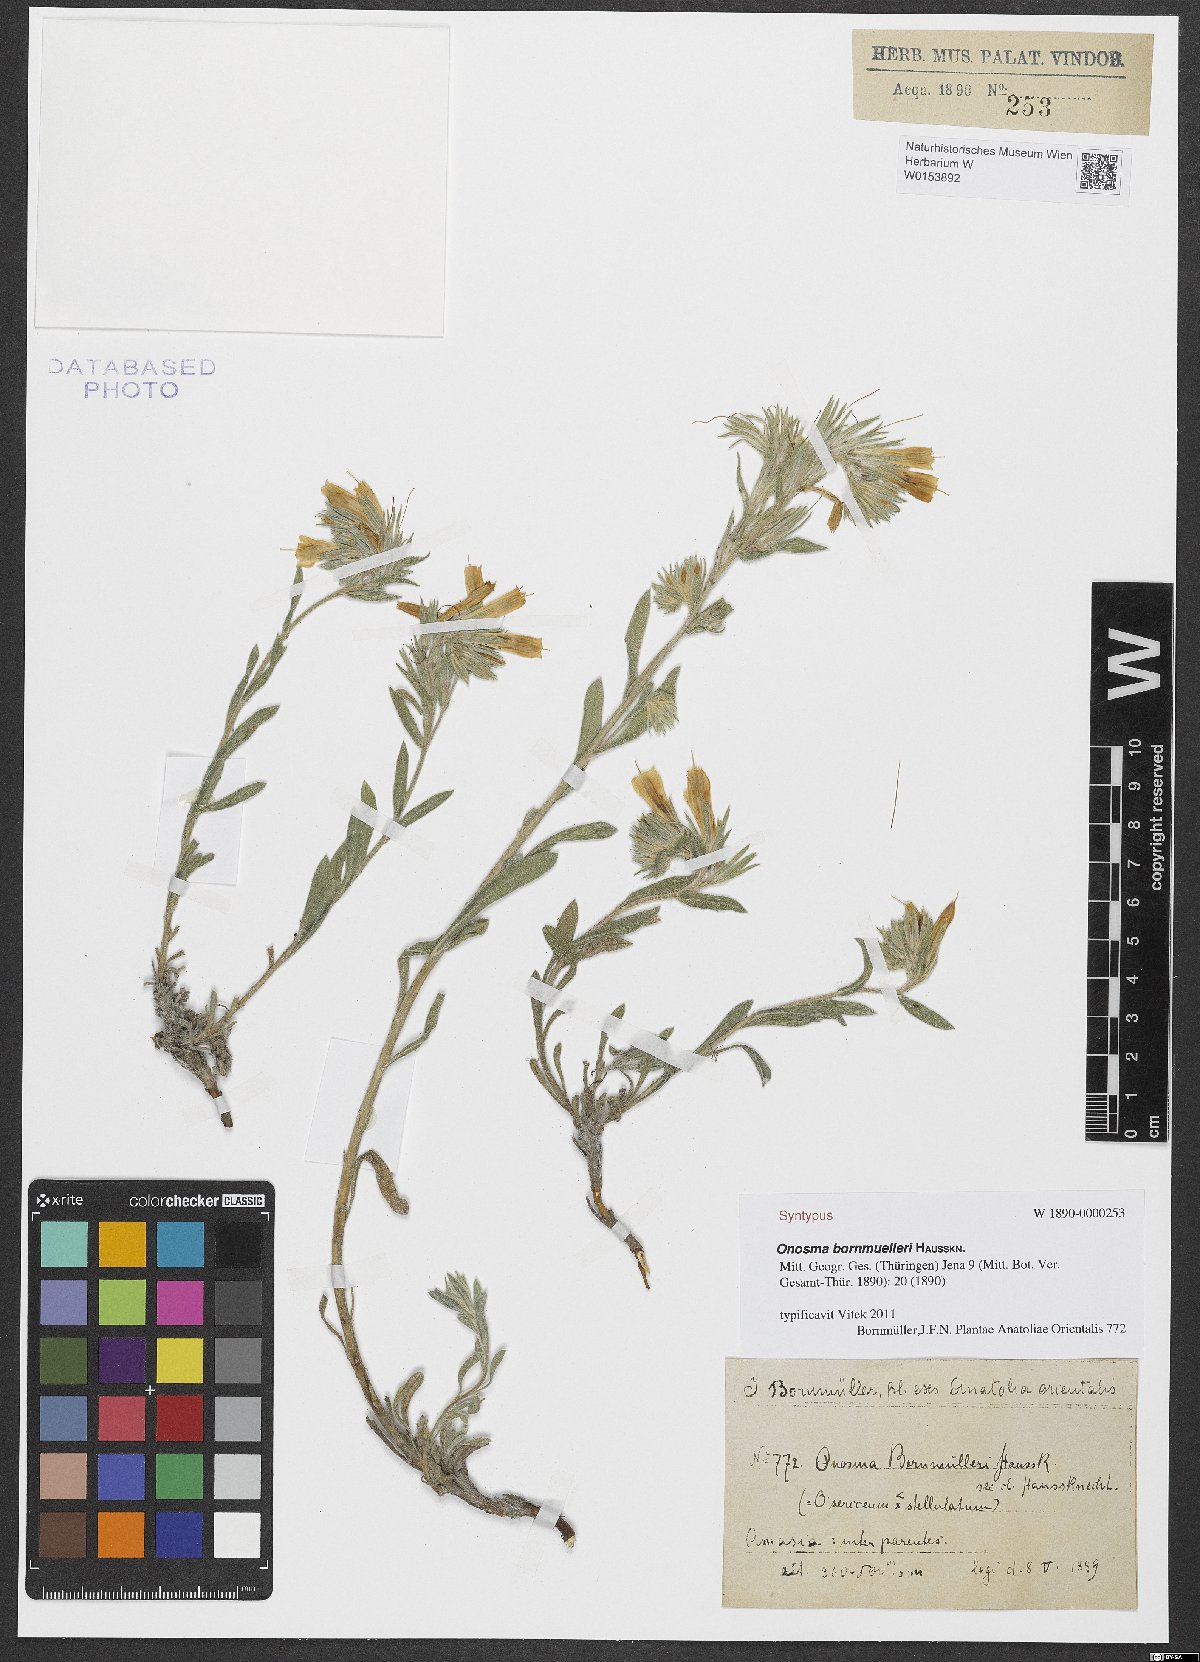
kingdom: Plantae
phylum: Tracheophyta
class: Magnoliopsida
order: Boraginales
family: Boraginaceae
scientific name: Boraginaceae
